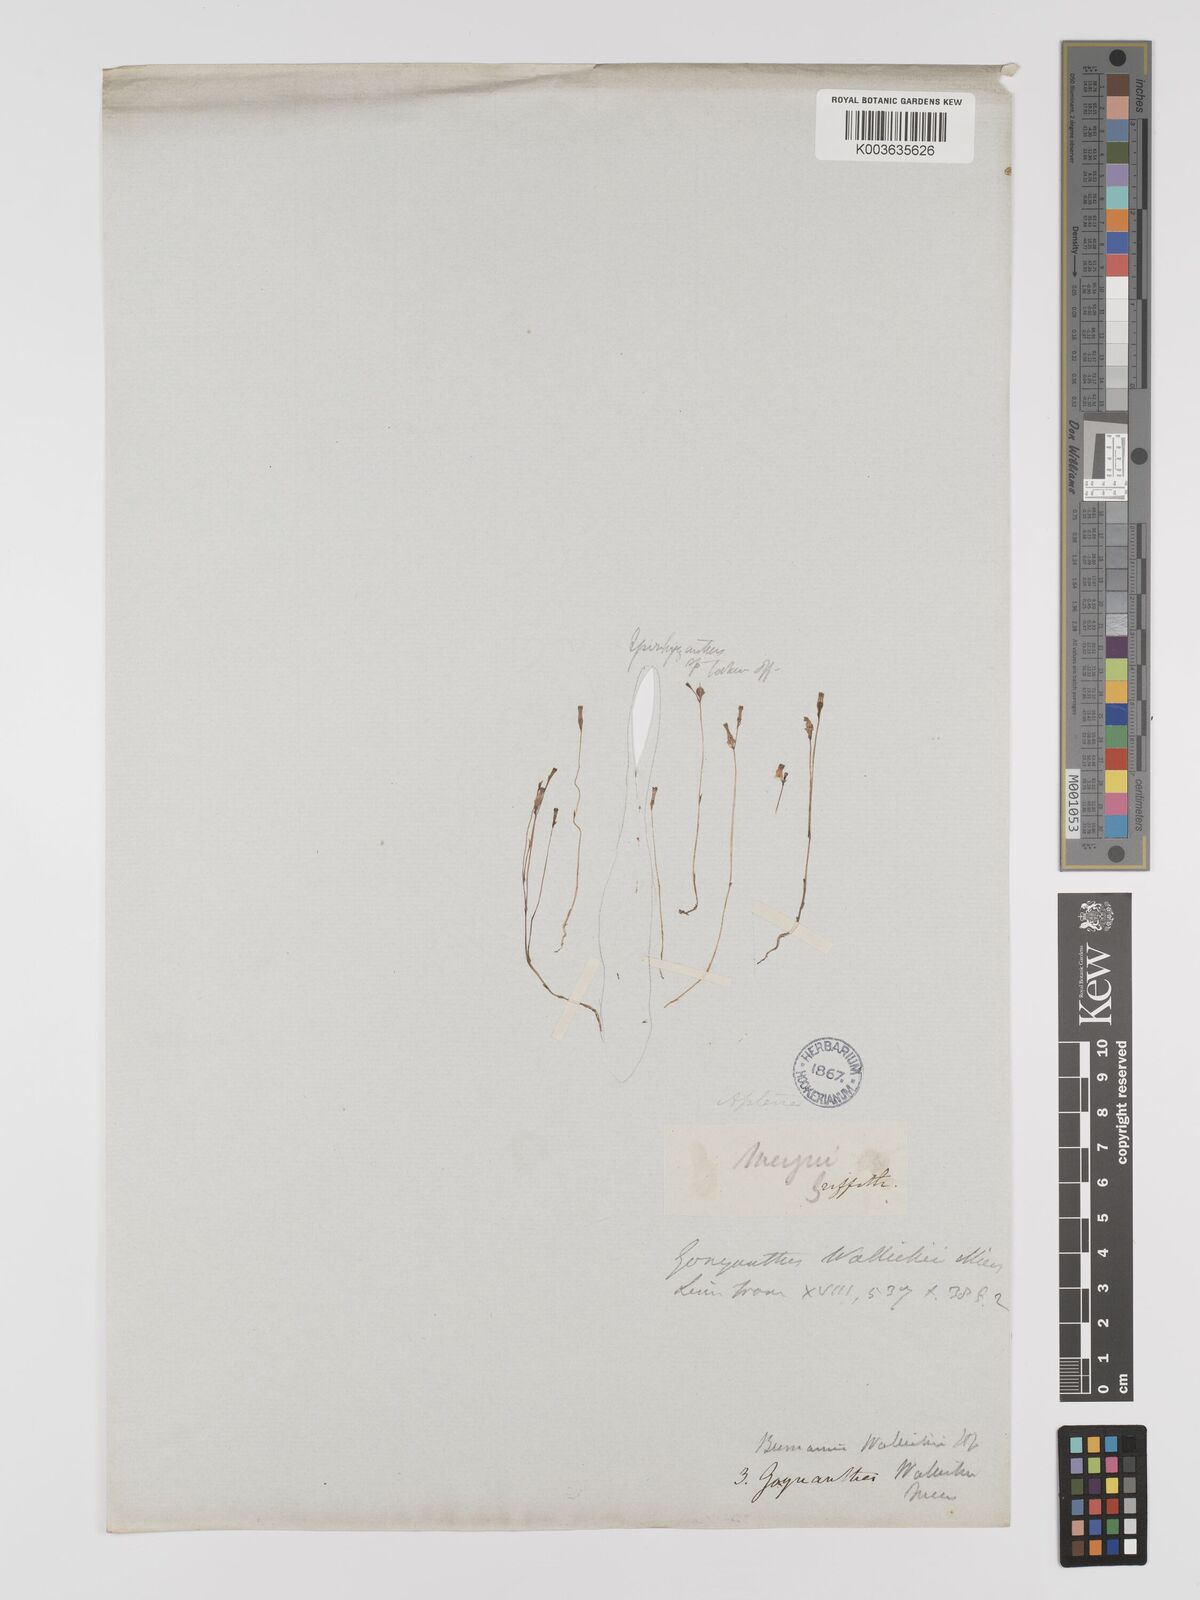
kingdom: Plantae
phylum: Tracheophyta
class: Liliopsida
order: Dioscoreales
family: Burmanniaceae
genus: Burmannia
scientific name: Burmannia wallichii
